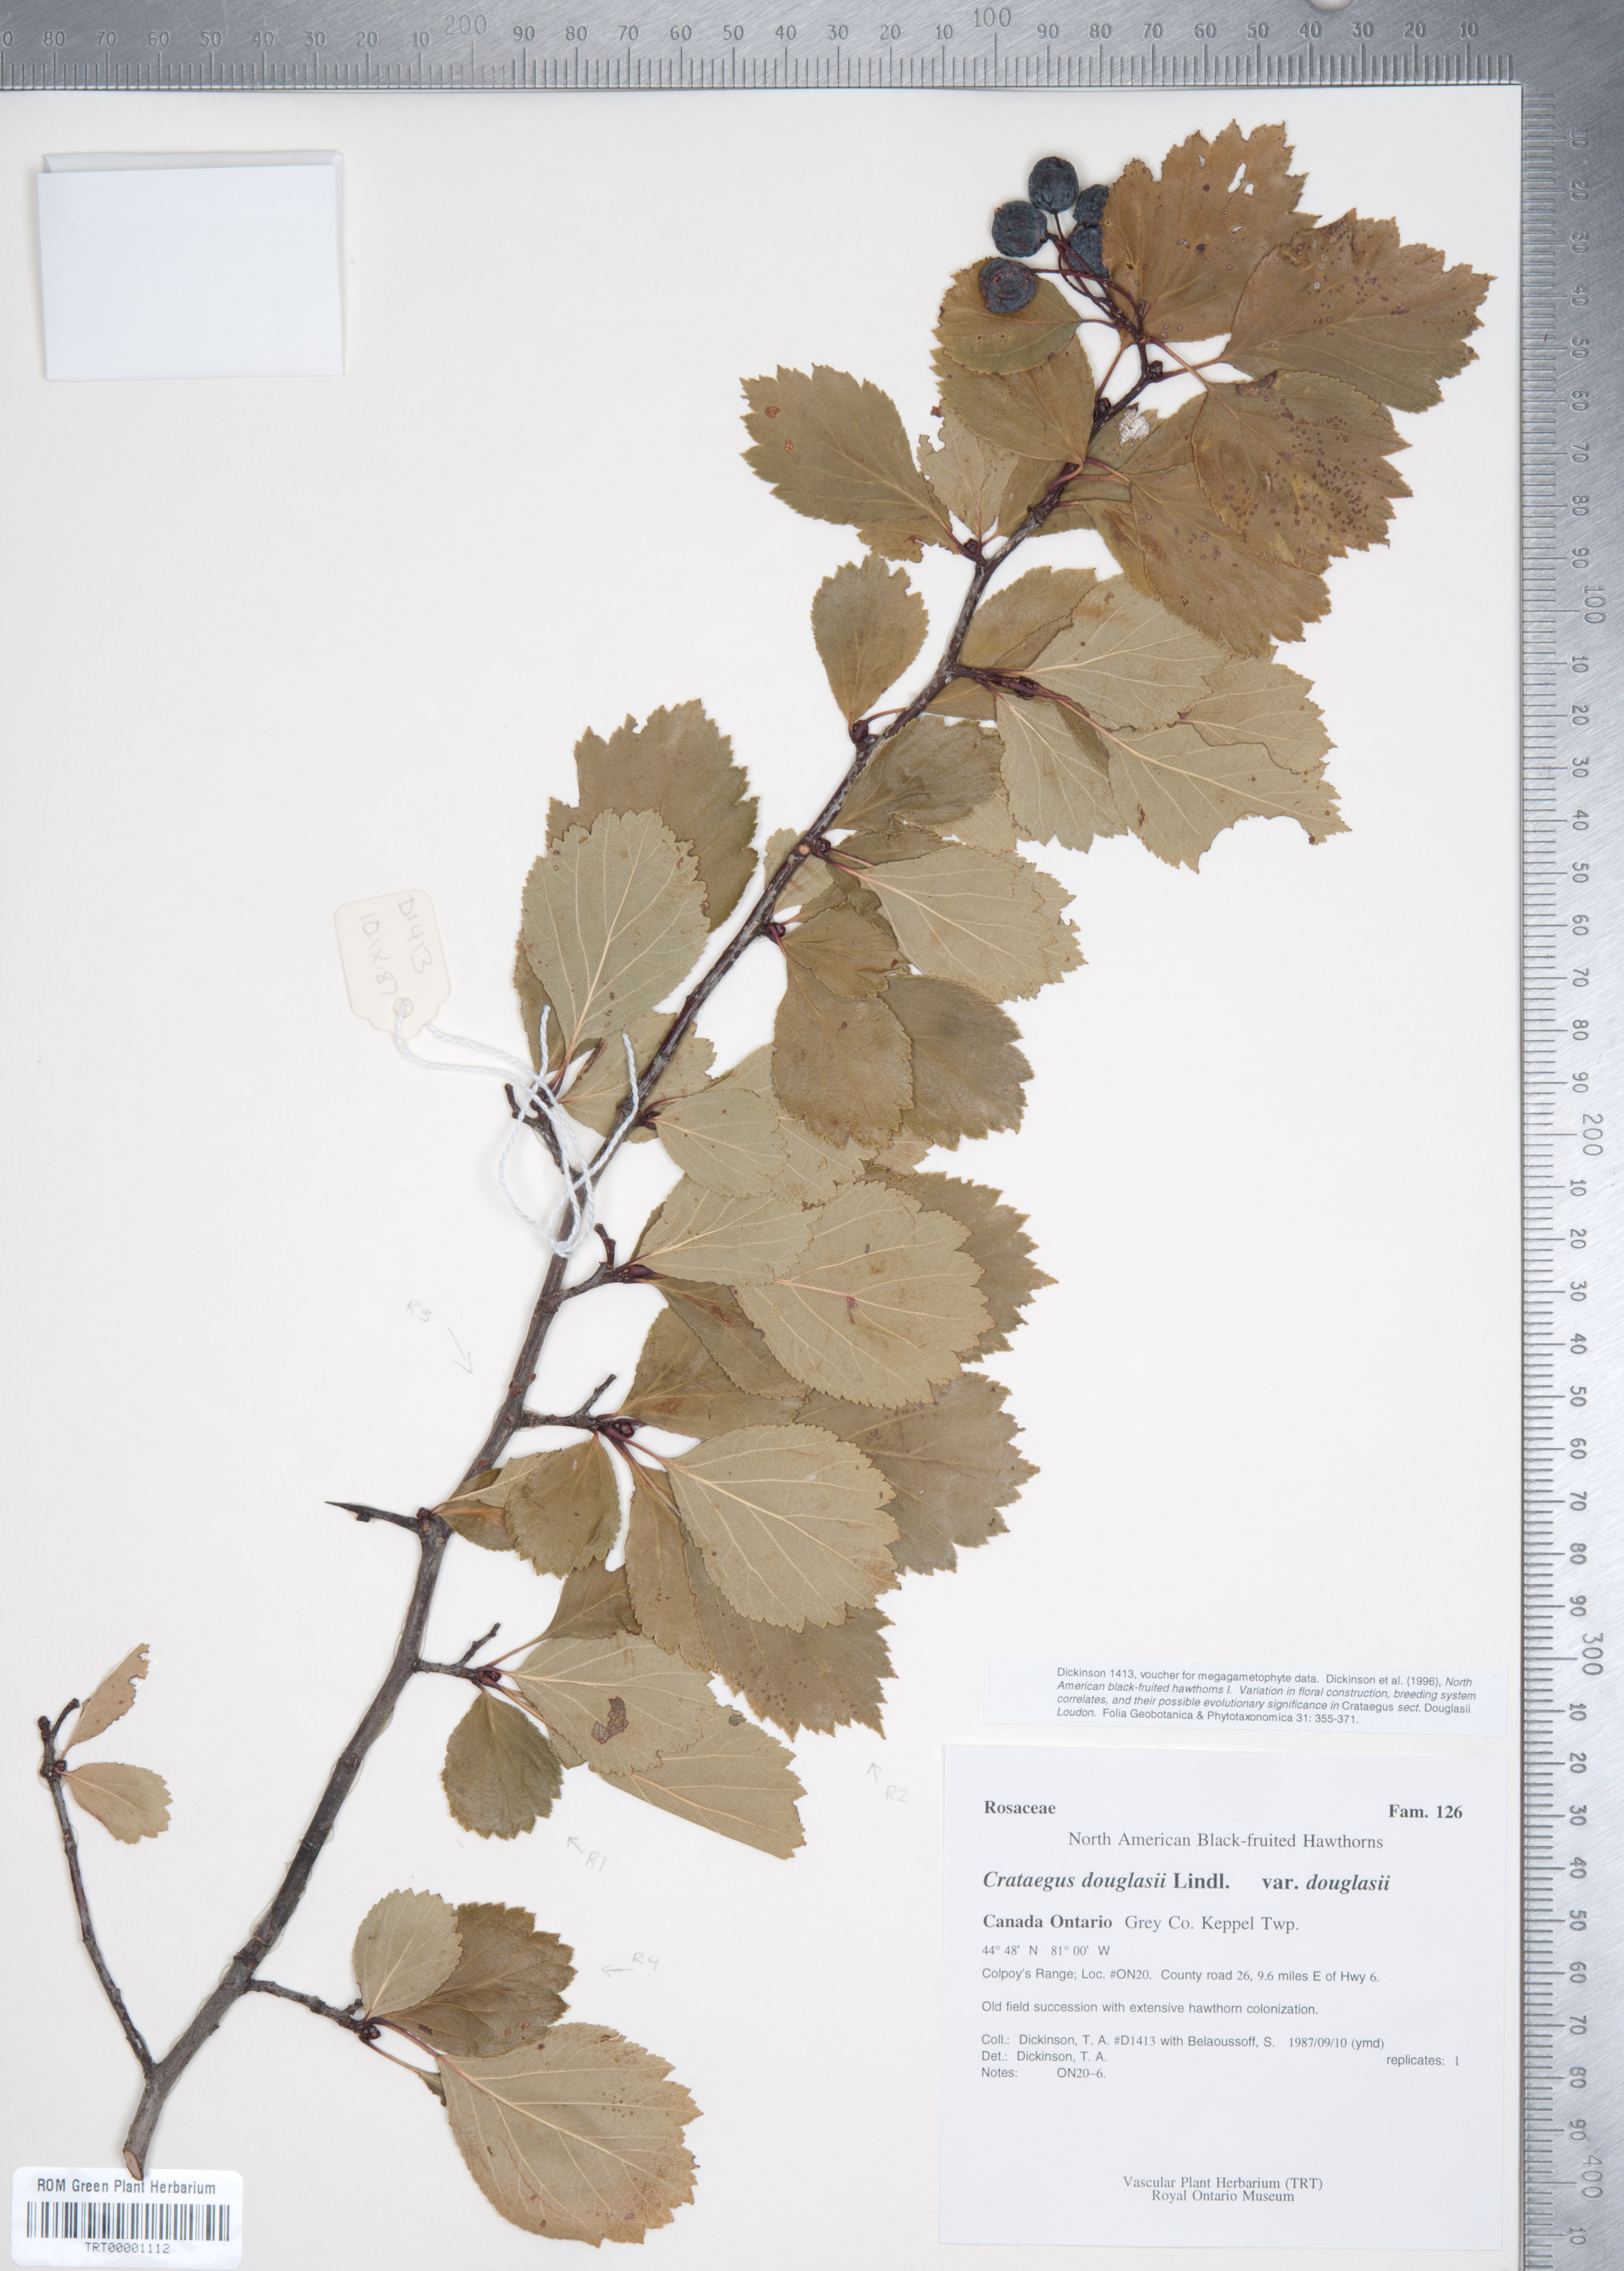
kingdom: Plantae
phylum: Tracheophyta
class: Magnoliopsida
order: Rosales
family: Rosaceae
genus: Crataegus
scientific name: Crataegus douglasii
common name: Black hawthorn
